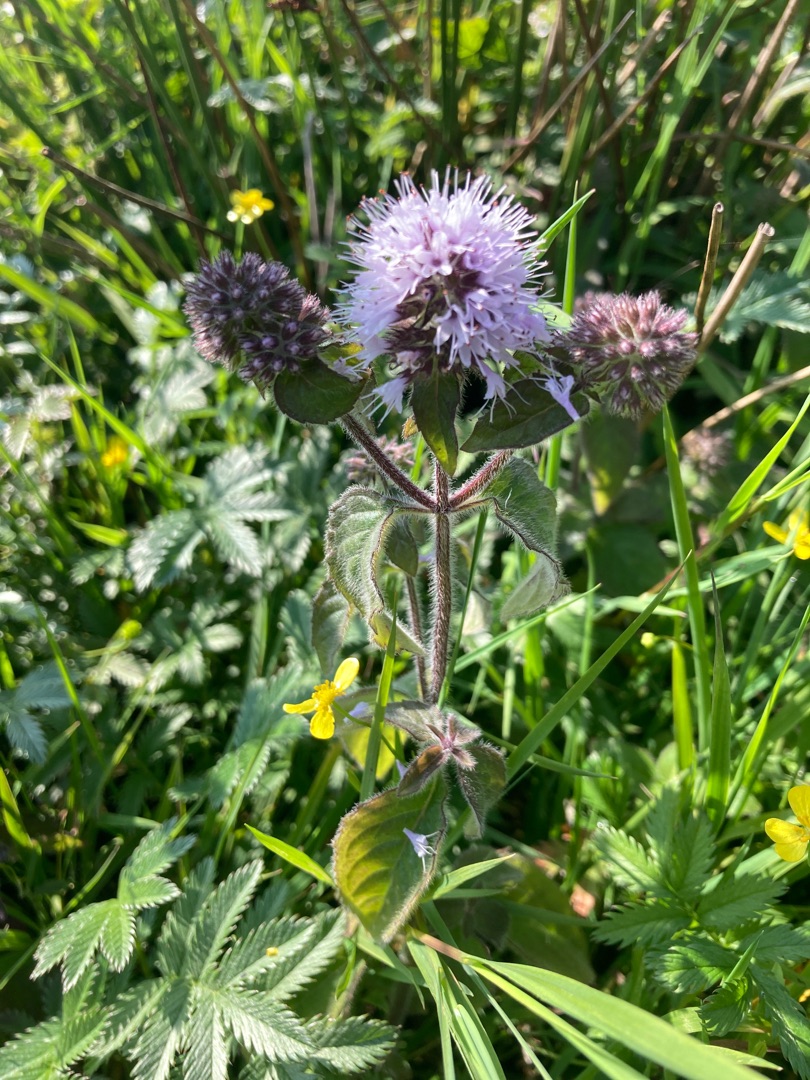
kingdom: Plantae
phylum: Tracheophyta
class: Magnoliopsida
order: Lamiales
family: Lamiaceae
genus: Mentha
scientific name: Mentha aquatica
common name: Vand-mynte
